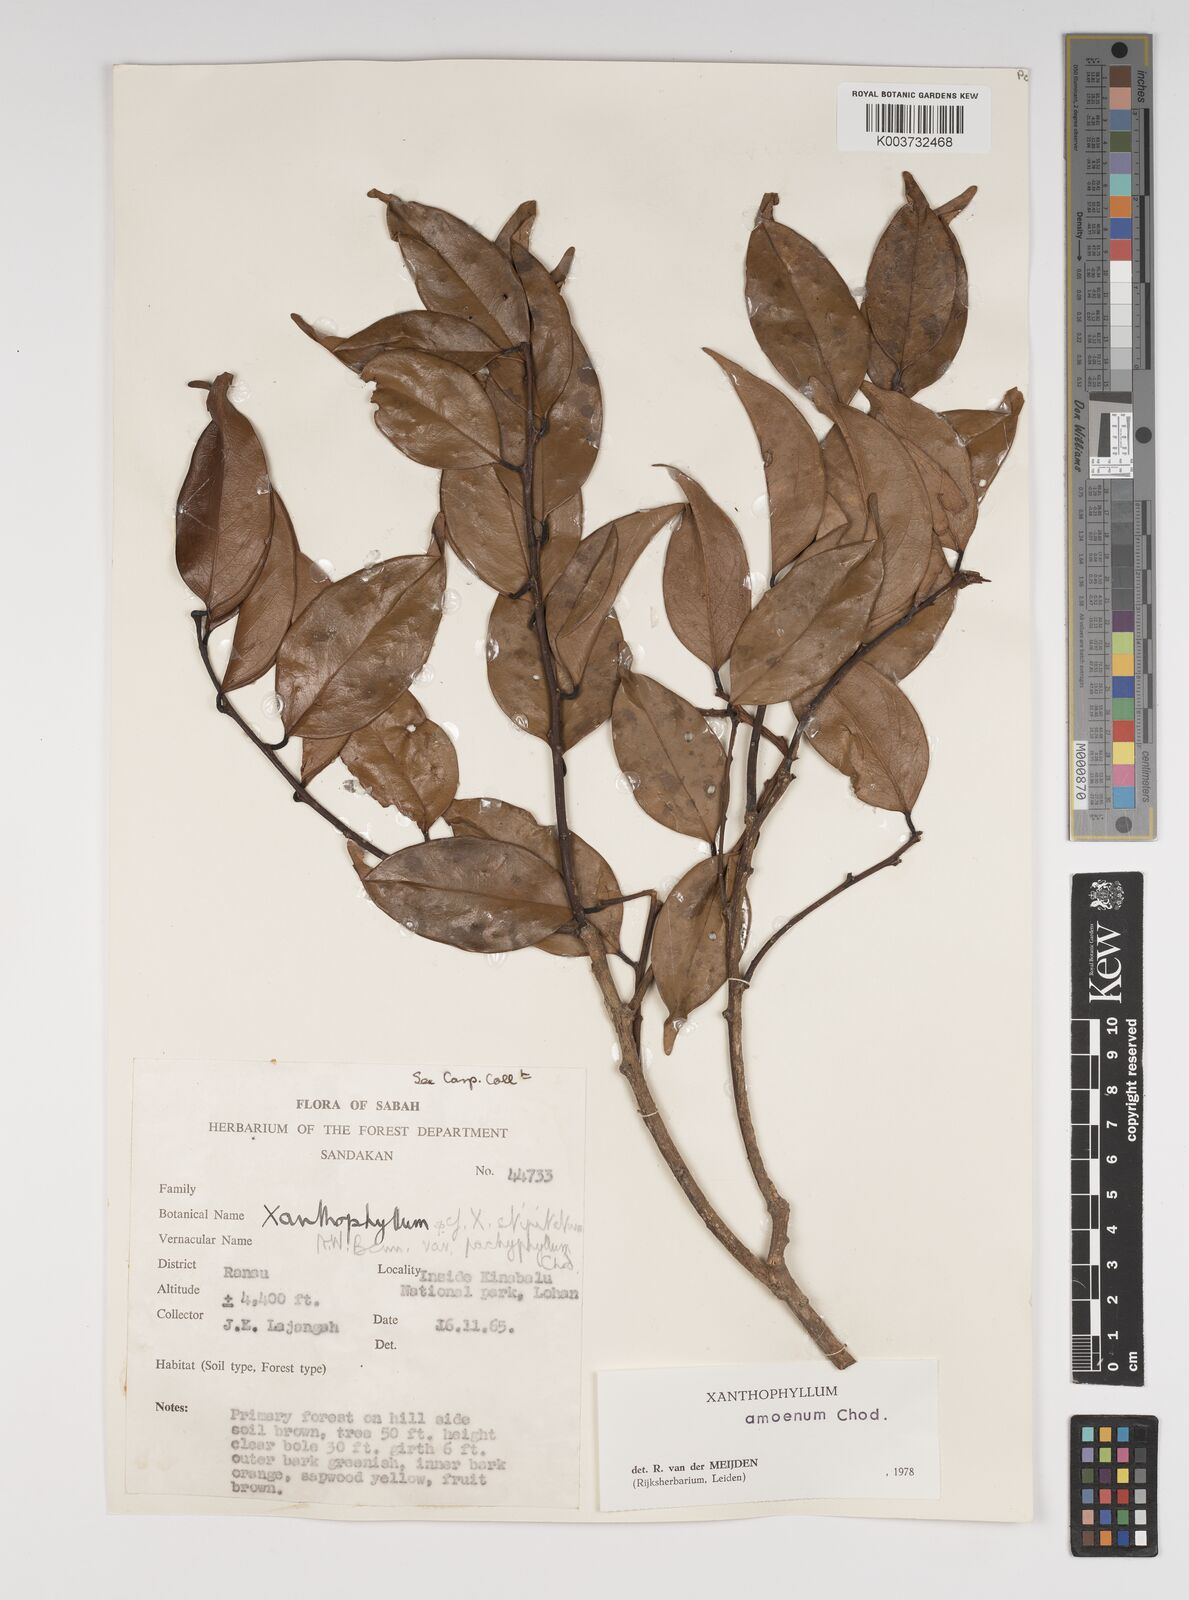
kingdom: Plantae
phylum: Tracheophyta
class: Magnoliopsida
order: Fabales
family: Polygalaceae
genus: Xanthophyllum
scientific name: Xanthophyllum stipitatum
